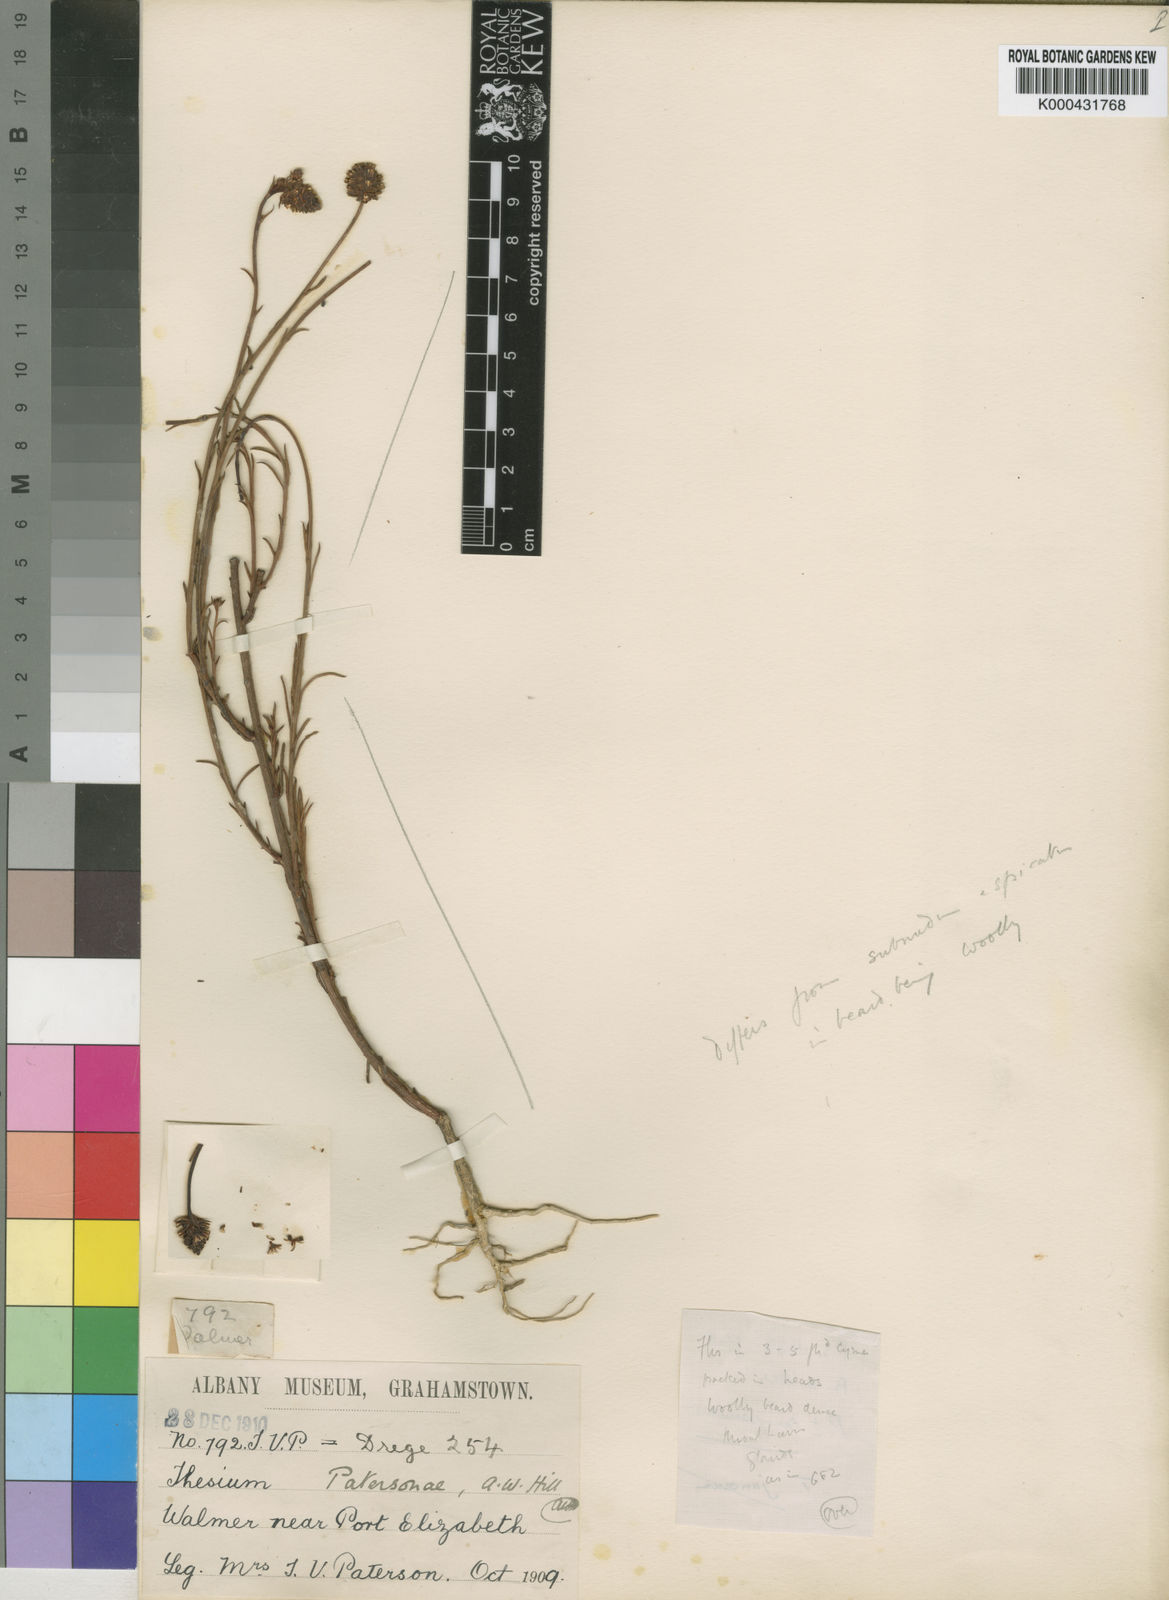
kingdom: Plantae
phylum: Tracheophyta
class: Magnoliopsida
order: Santalales
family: Thesiaceae
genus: Thesium
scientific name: Thesium patersonae
